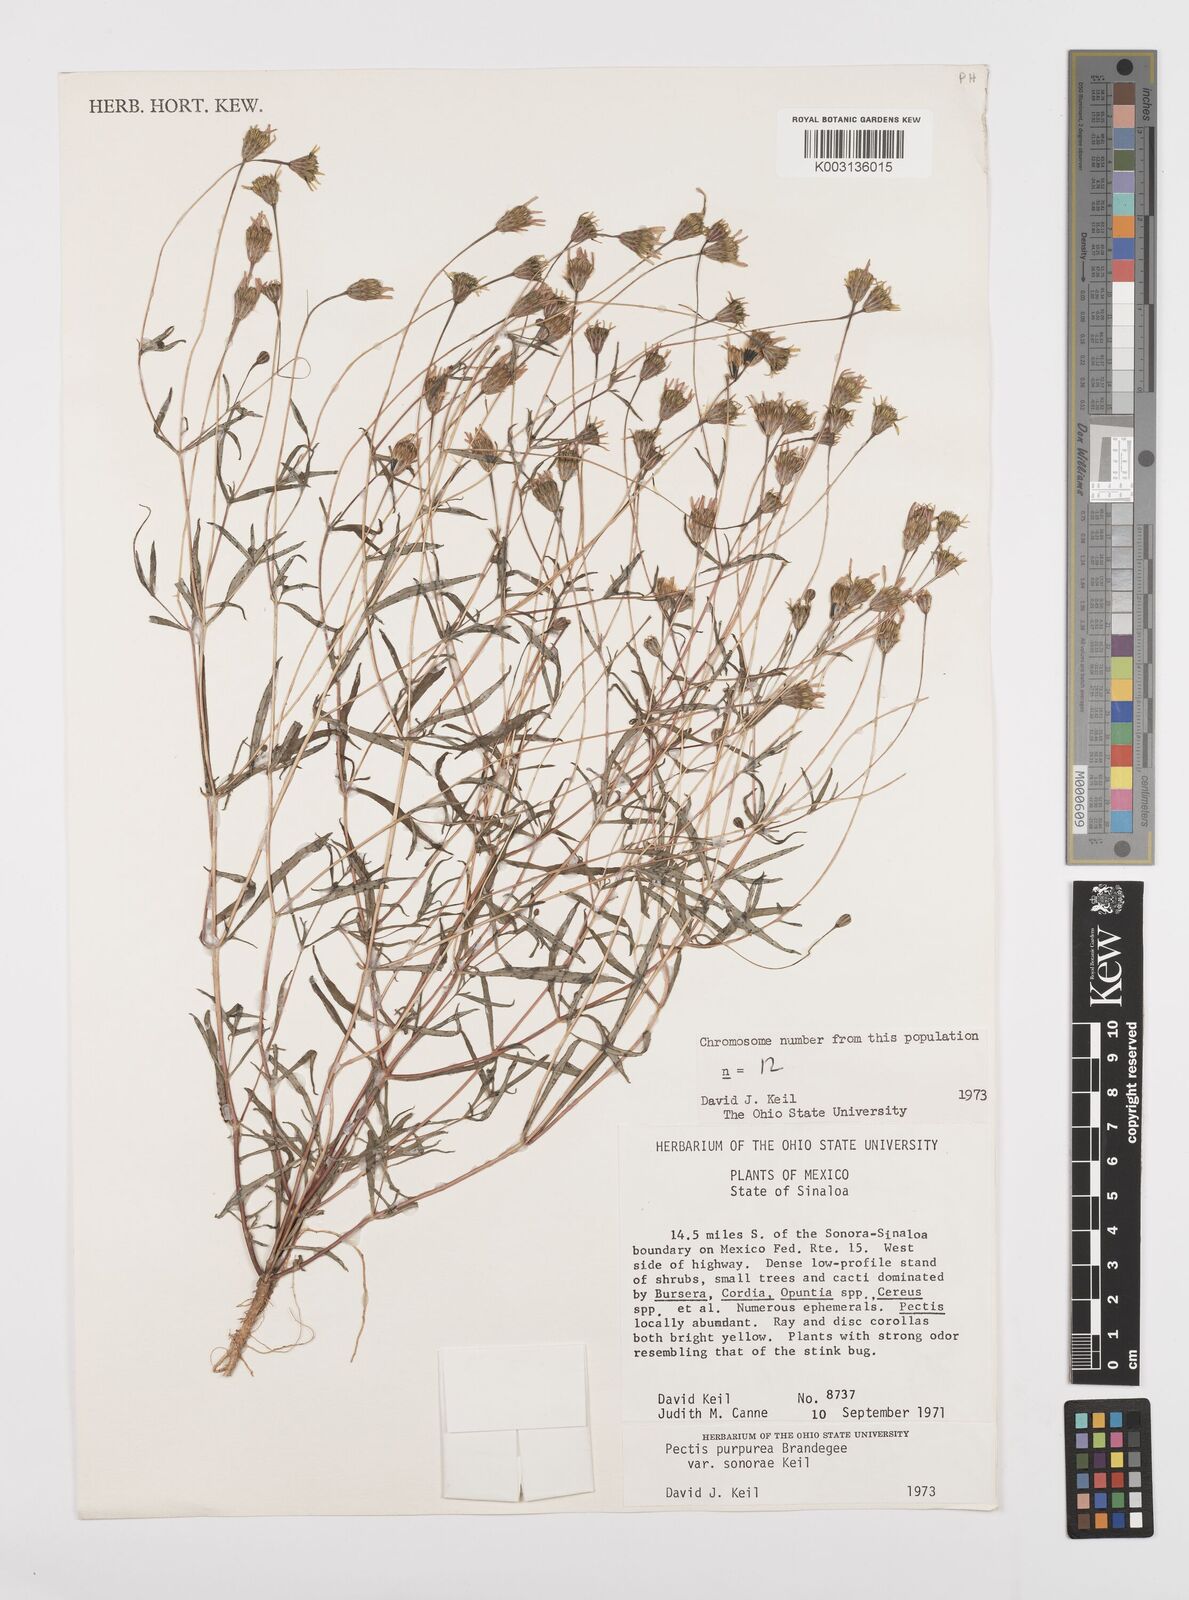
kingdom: Plantae
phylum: Tracheophyta
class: Magnoliopsida
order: Asterales
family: Asteraceae
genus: Pectis
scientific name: Pectis purpurea
